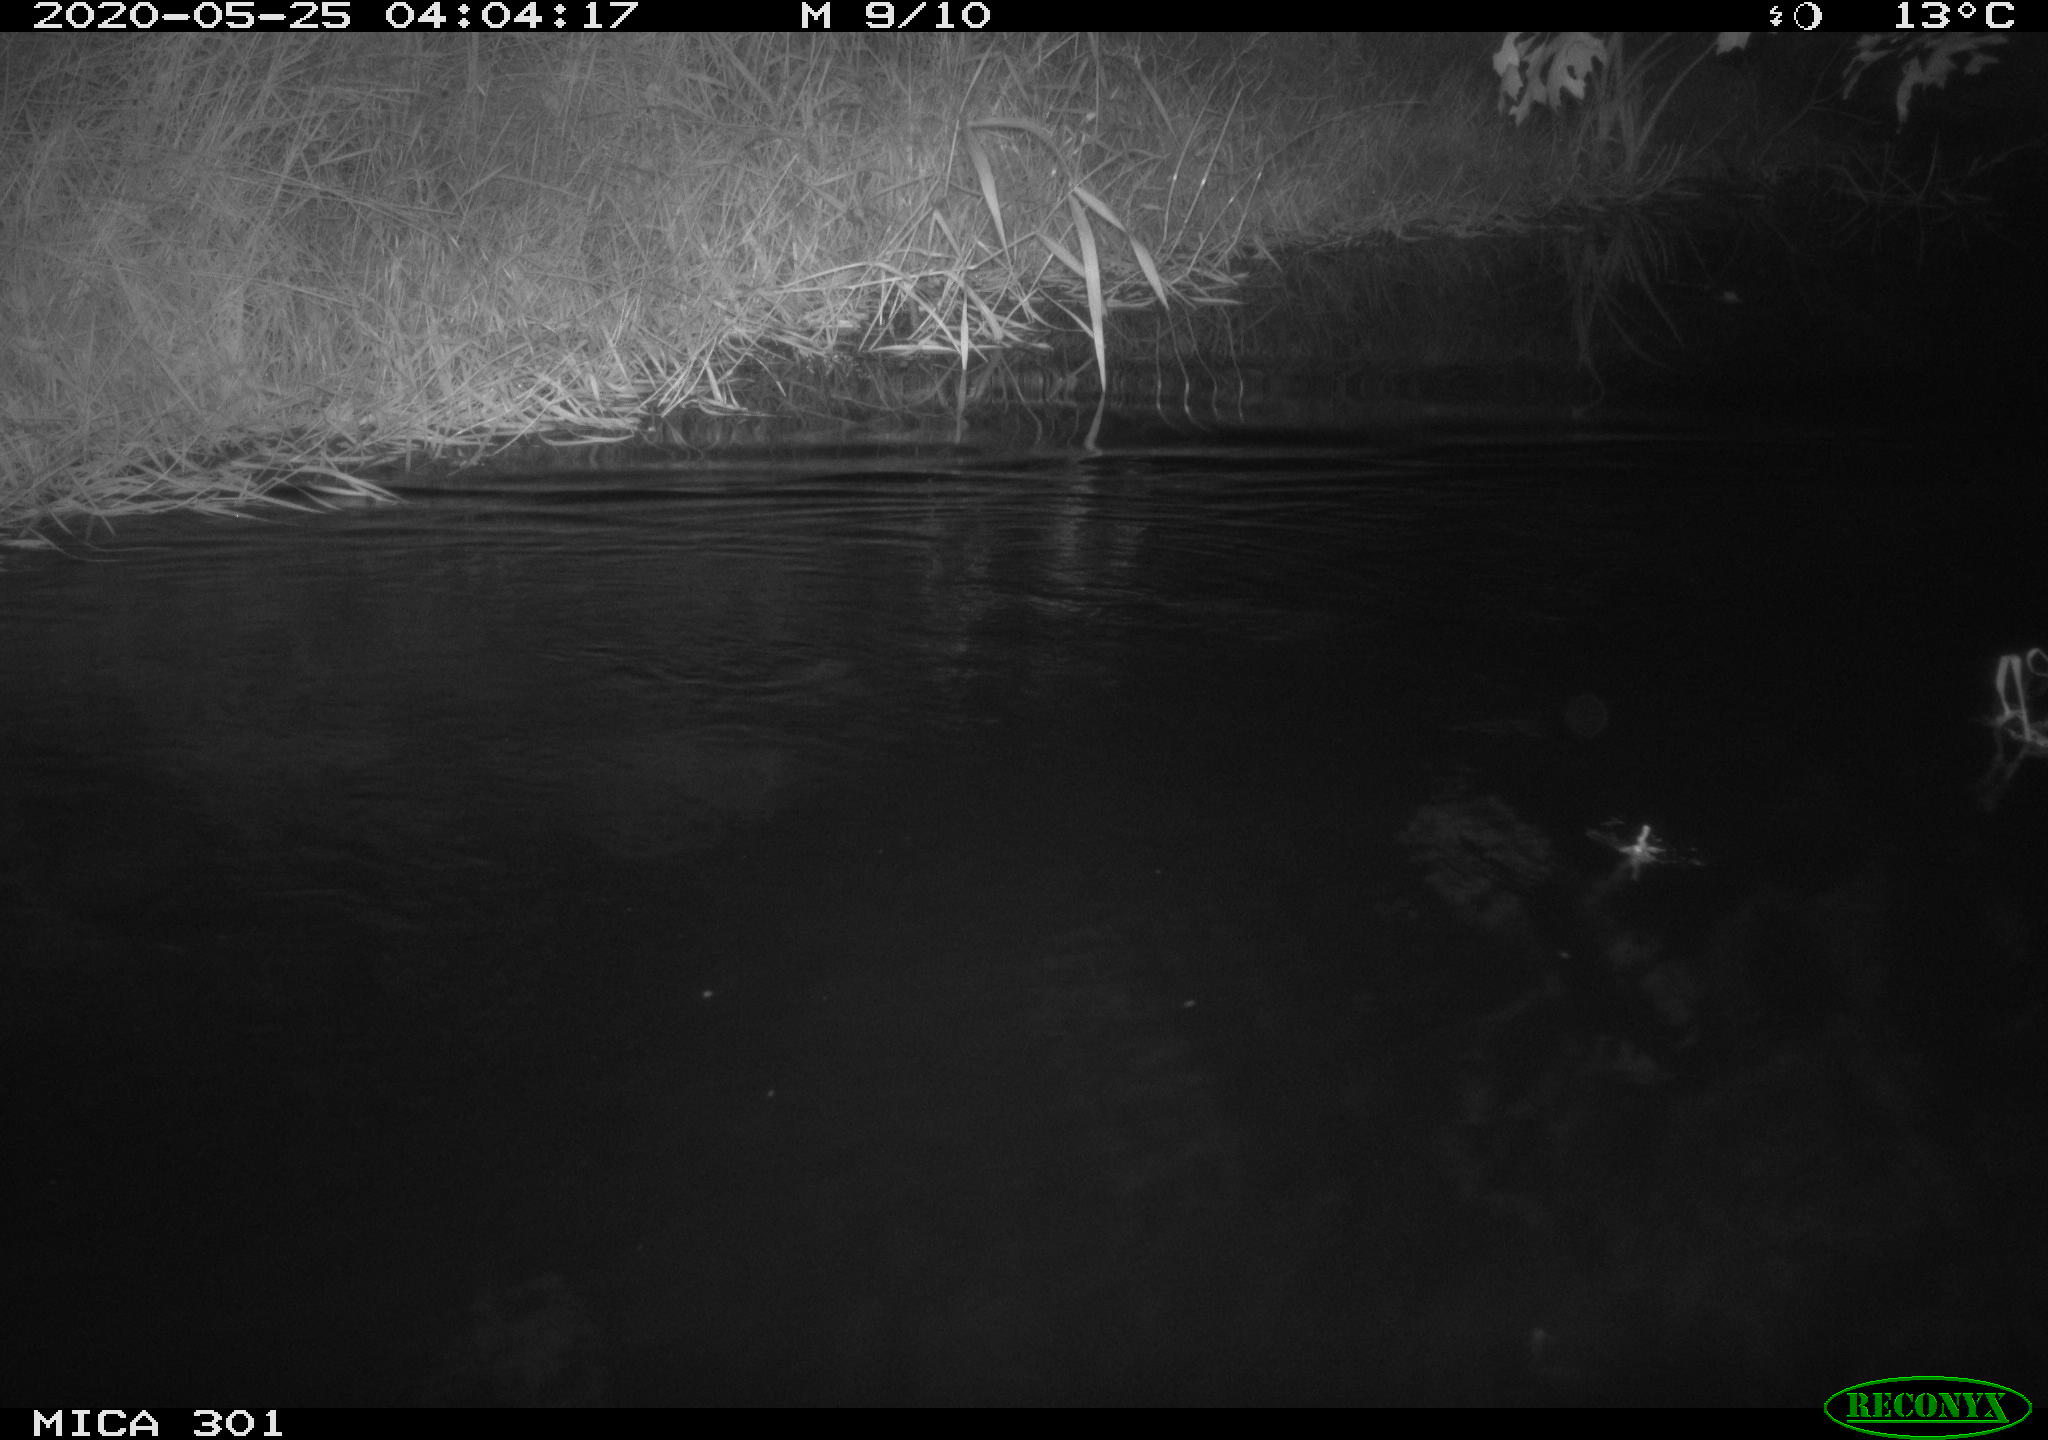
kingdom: Animalia
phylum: Chordata
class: Mammalia
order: Rodentia
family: Castoridae
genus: Castor
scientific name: Castor fiber
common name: Eurasian beaver
